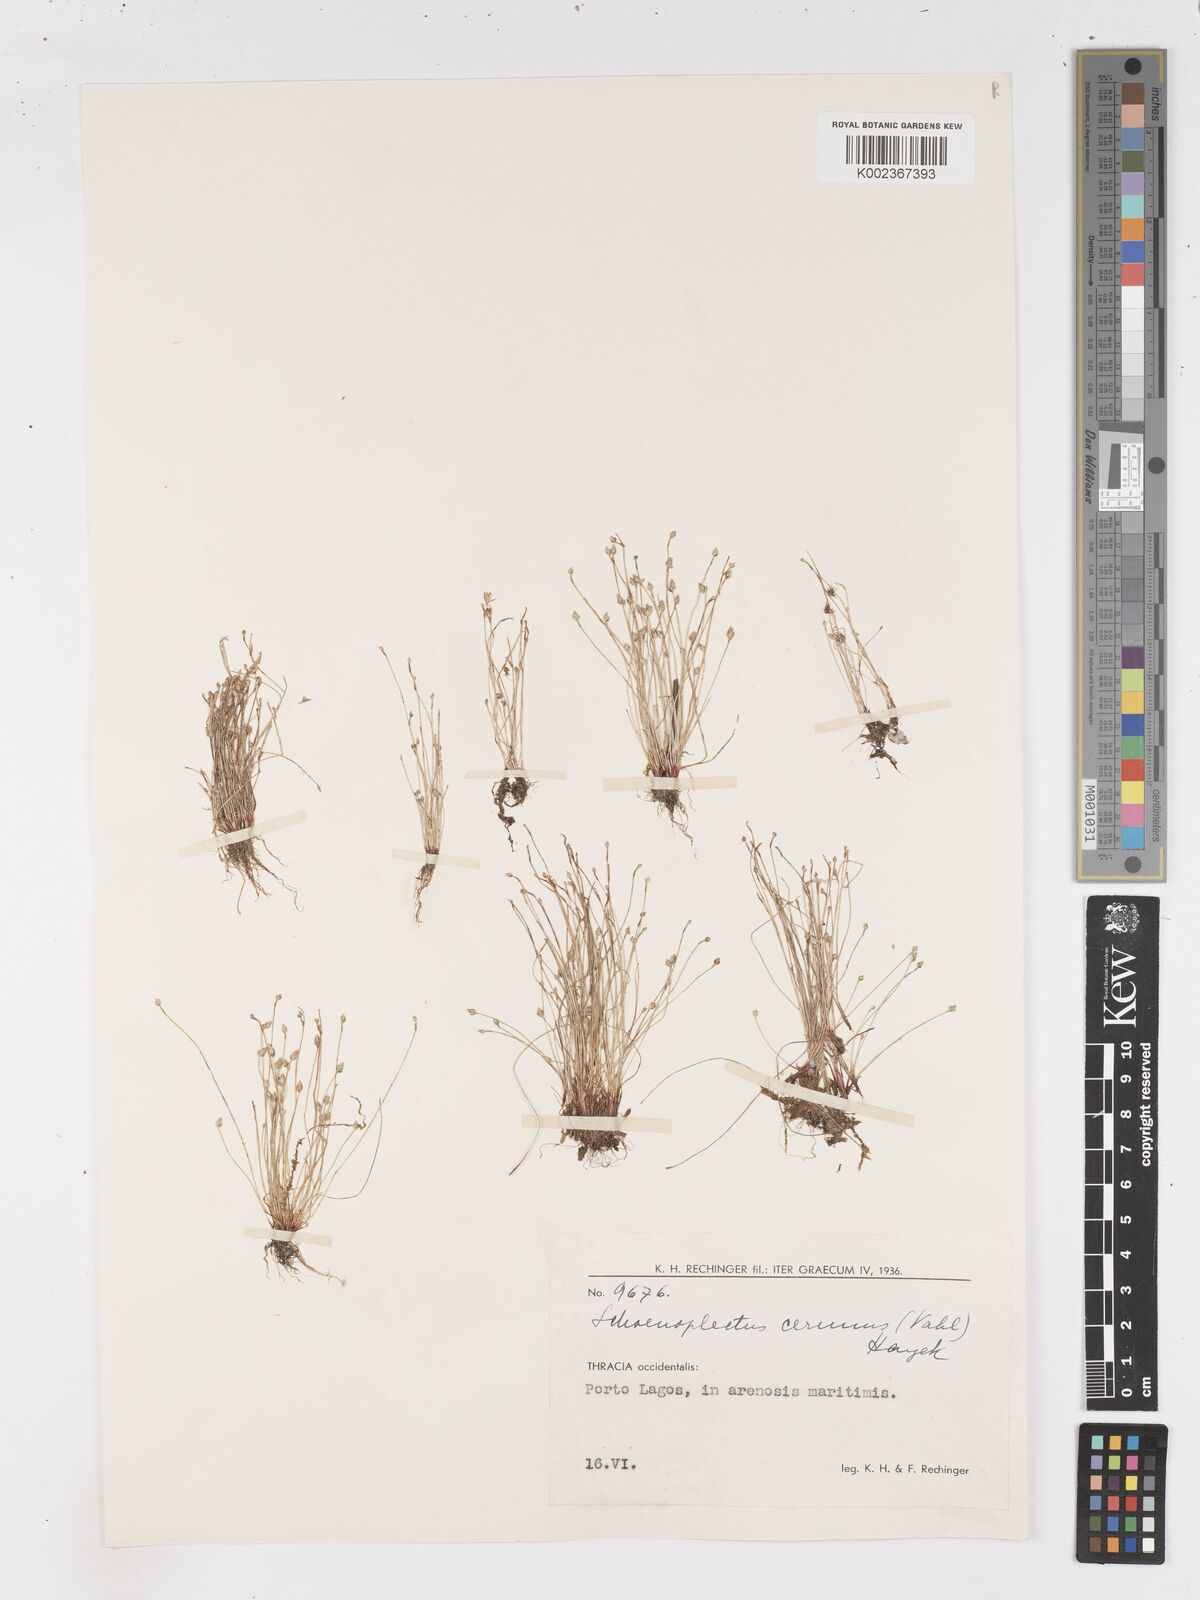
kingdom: Plantae
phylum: Tracheophyta
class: Liliopsida
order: Poales
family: Cyperaceae
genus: Isolepis
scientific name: Isolepis cernua
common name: Slender club-rush
